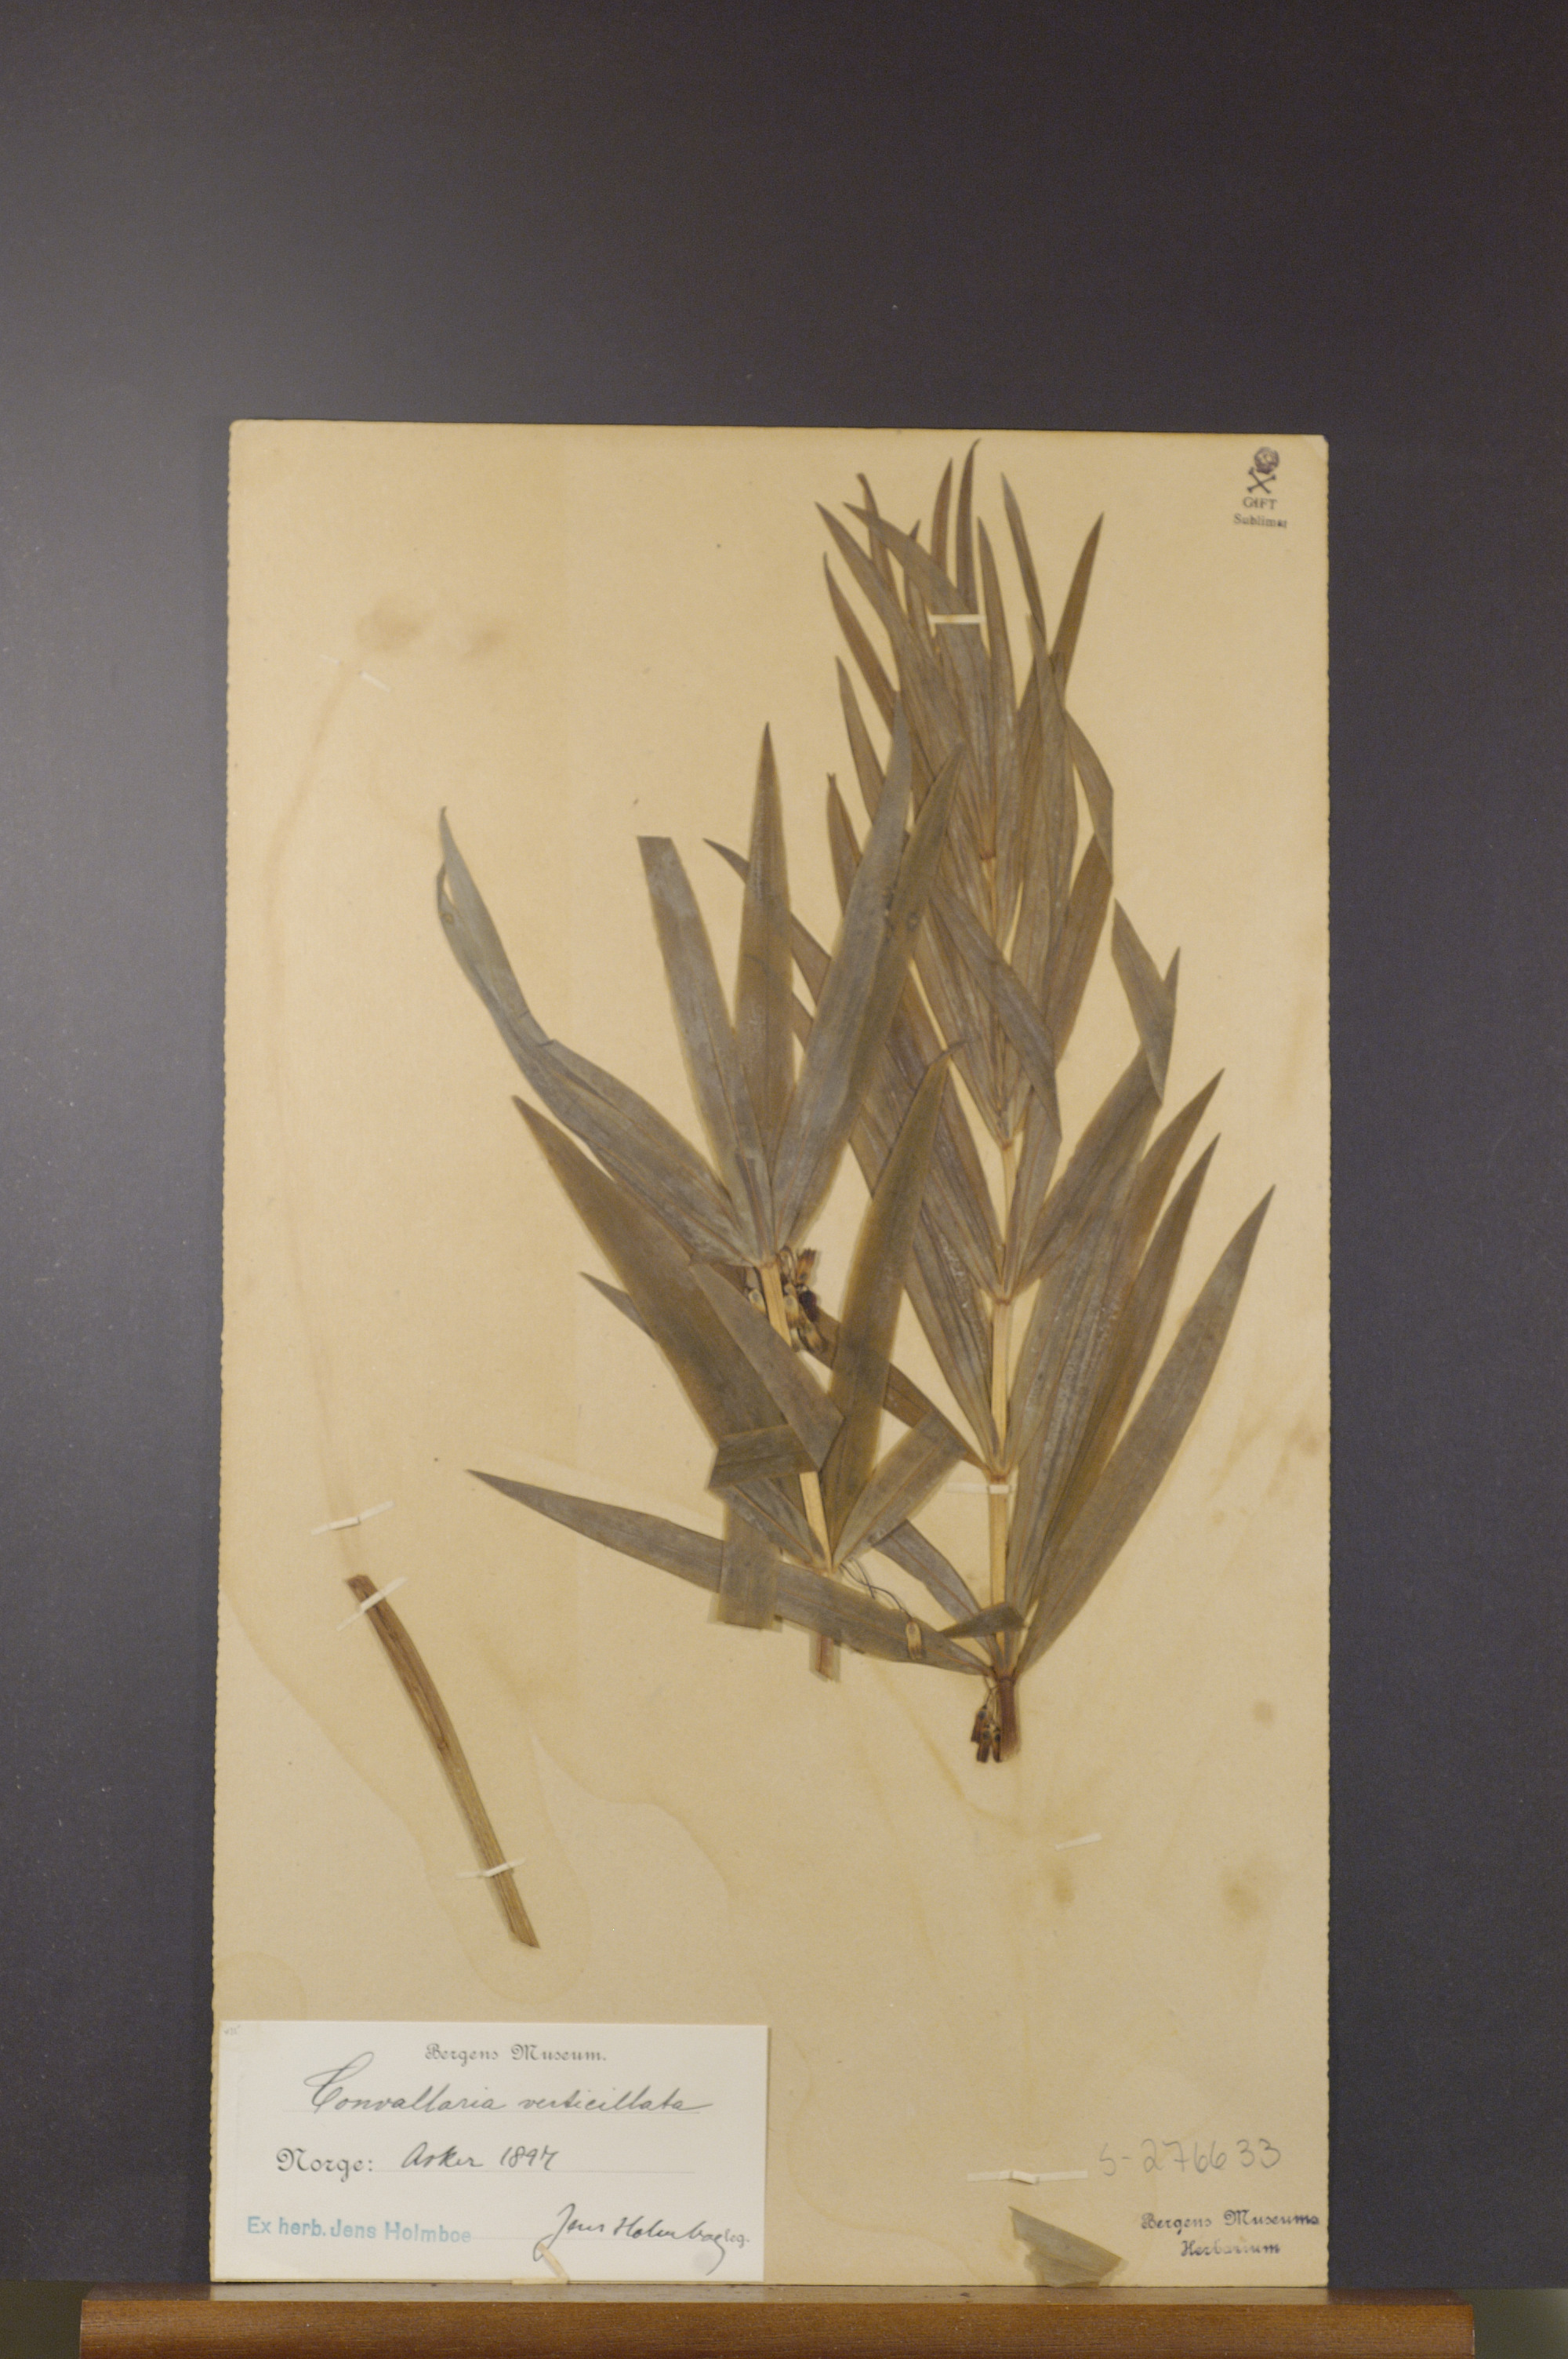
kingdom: Plantae
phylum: Tracheophyta
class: Liliopsida
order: Asparagales
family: Asparagaceae
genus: Polygonatum
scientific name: Polygonatum verticillatum
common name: Whorled solomon's-seal
